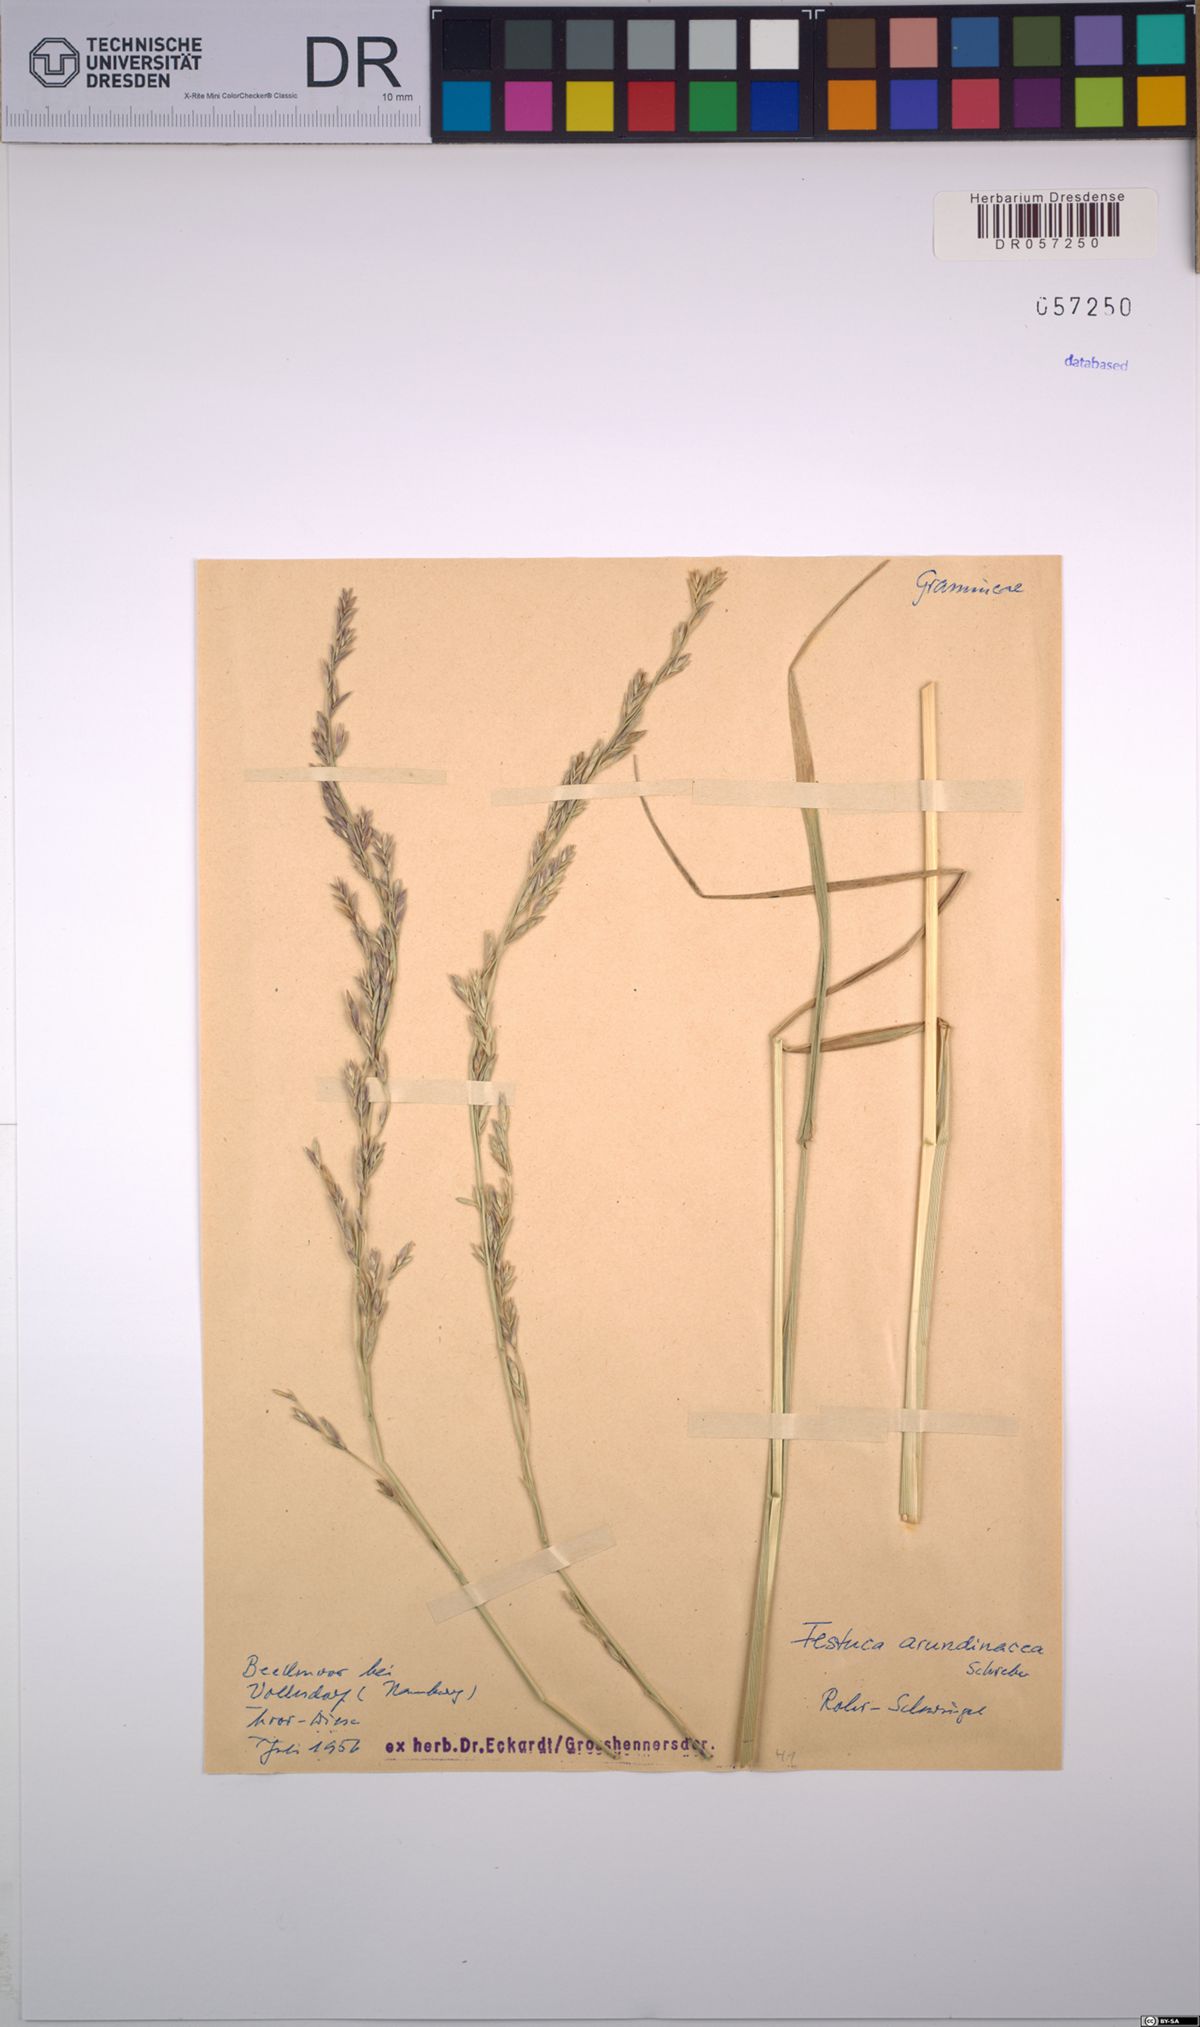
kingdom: Plantae
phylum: Tracheophyta
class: Liliopsida
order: Poales
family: Poaceae
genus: Lolium
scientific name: Lolium arundinaceum
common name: Reed fescue
